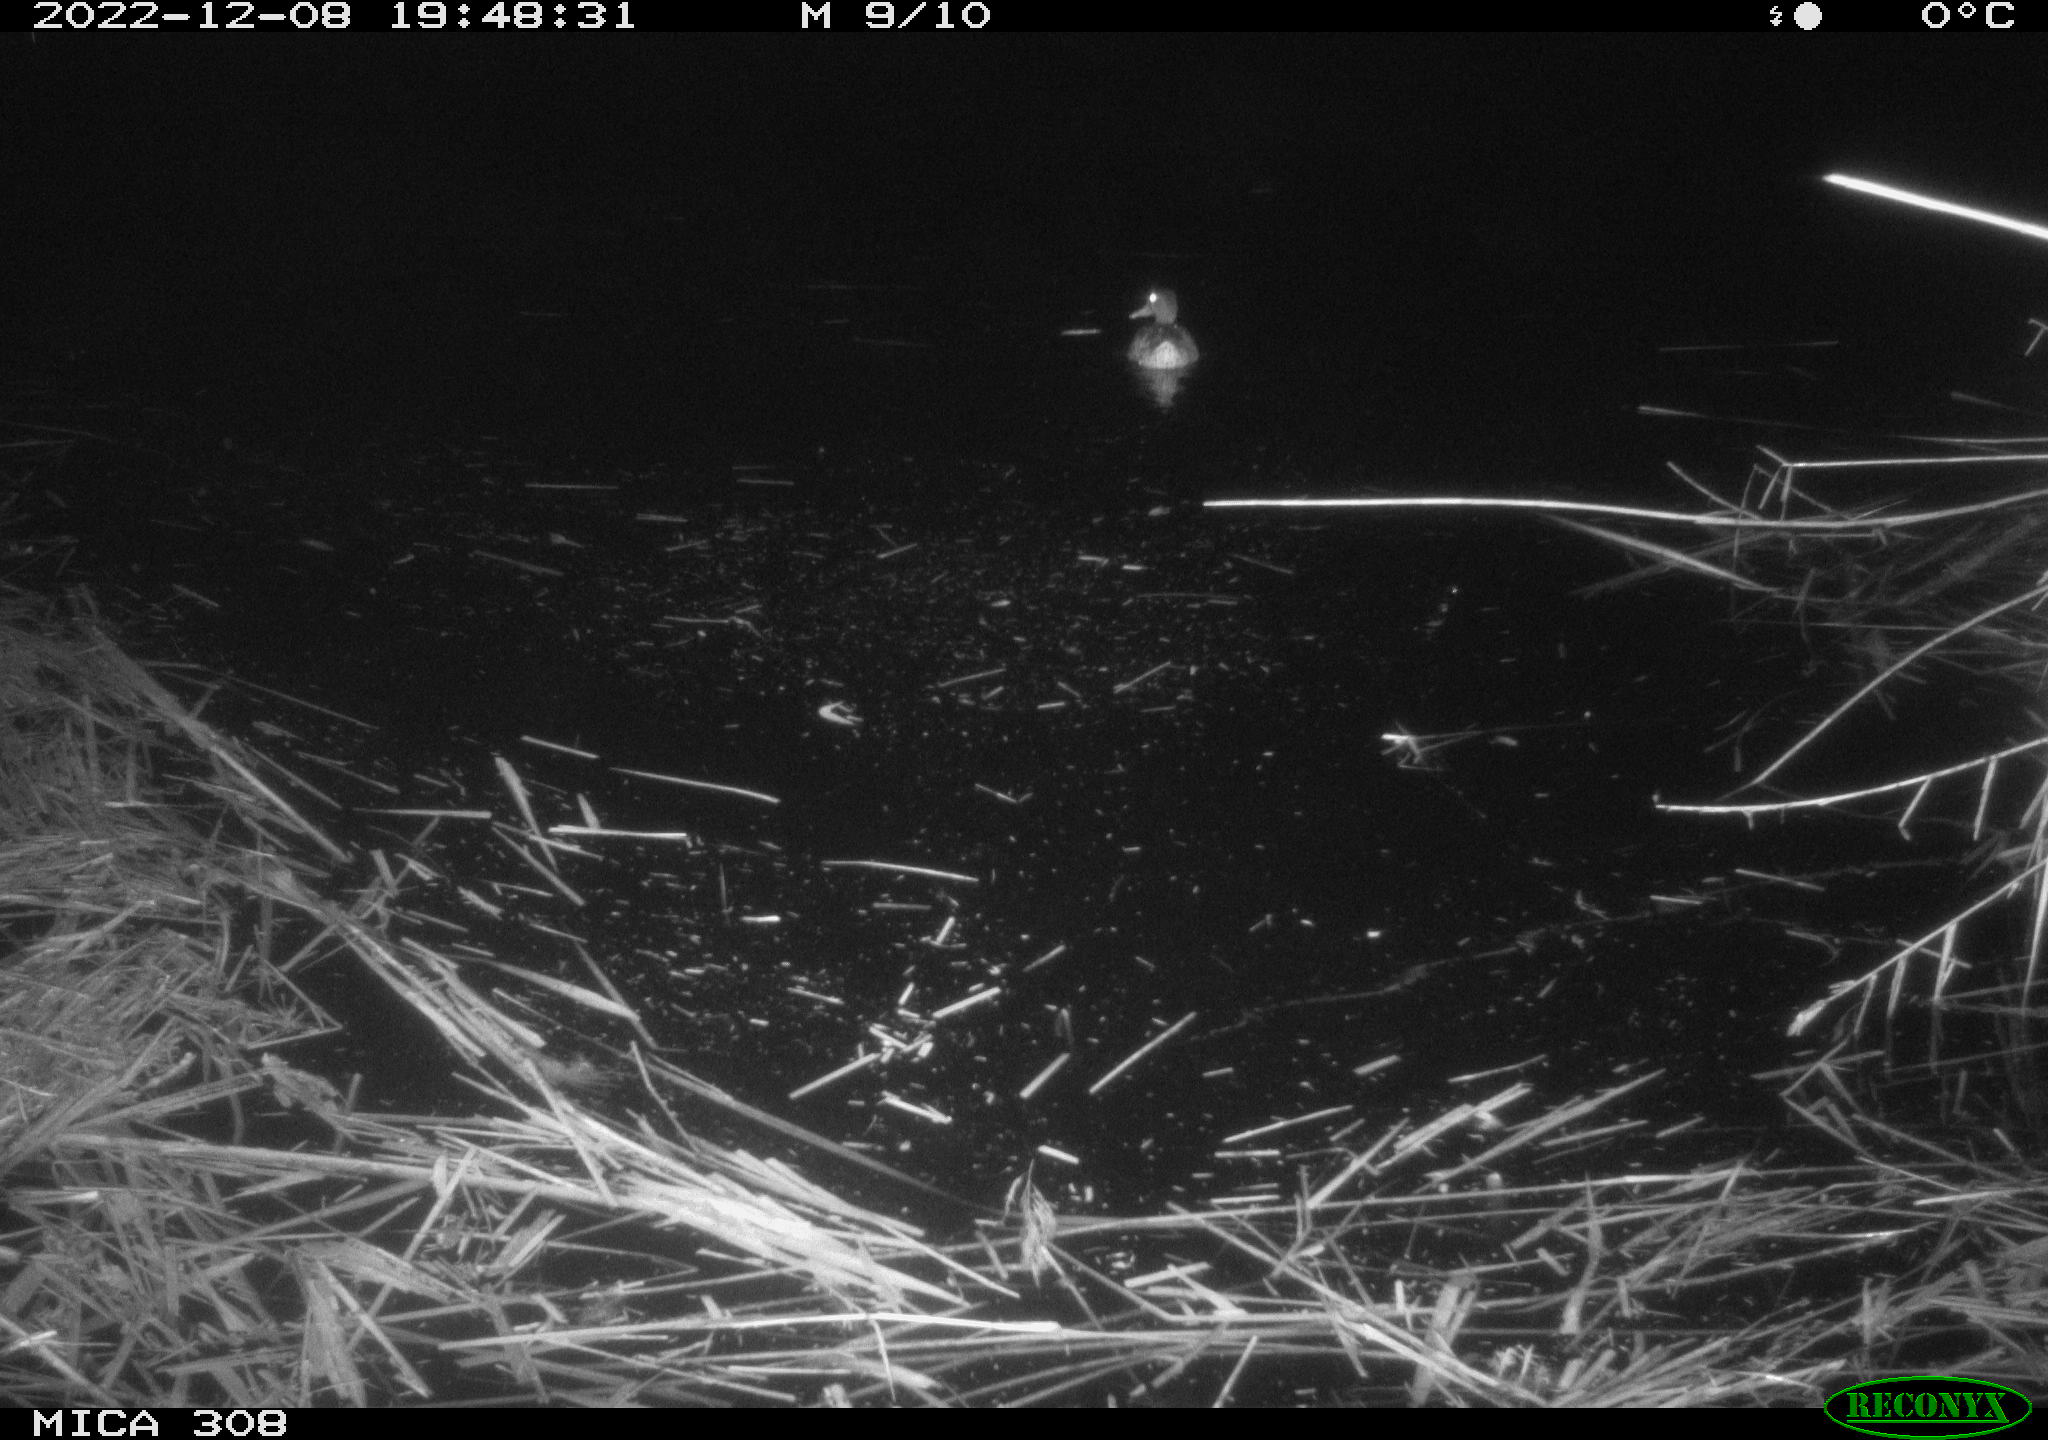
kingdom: Animalia
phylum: Chordata
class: Aves
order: Anseriformes
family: Anatidae
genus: Anas
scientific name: Anas
